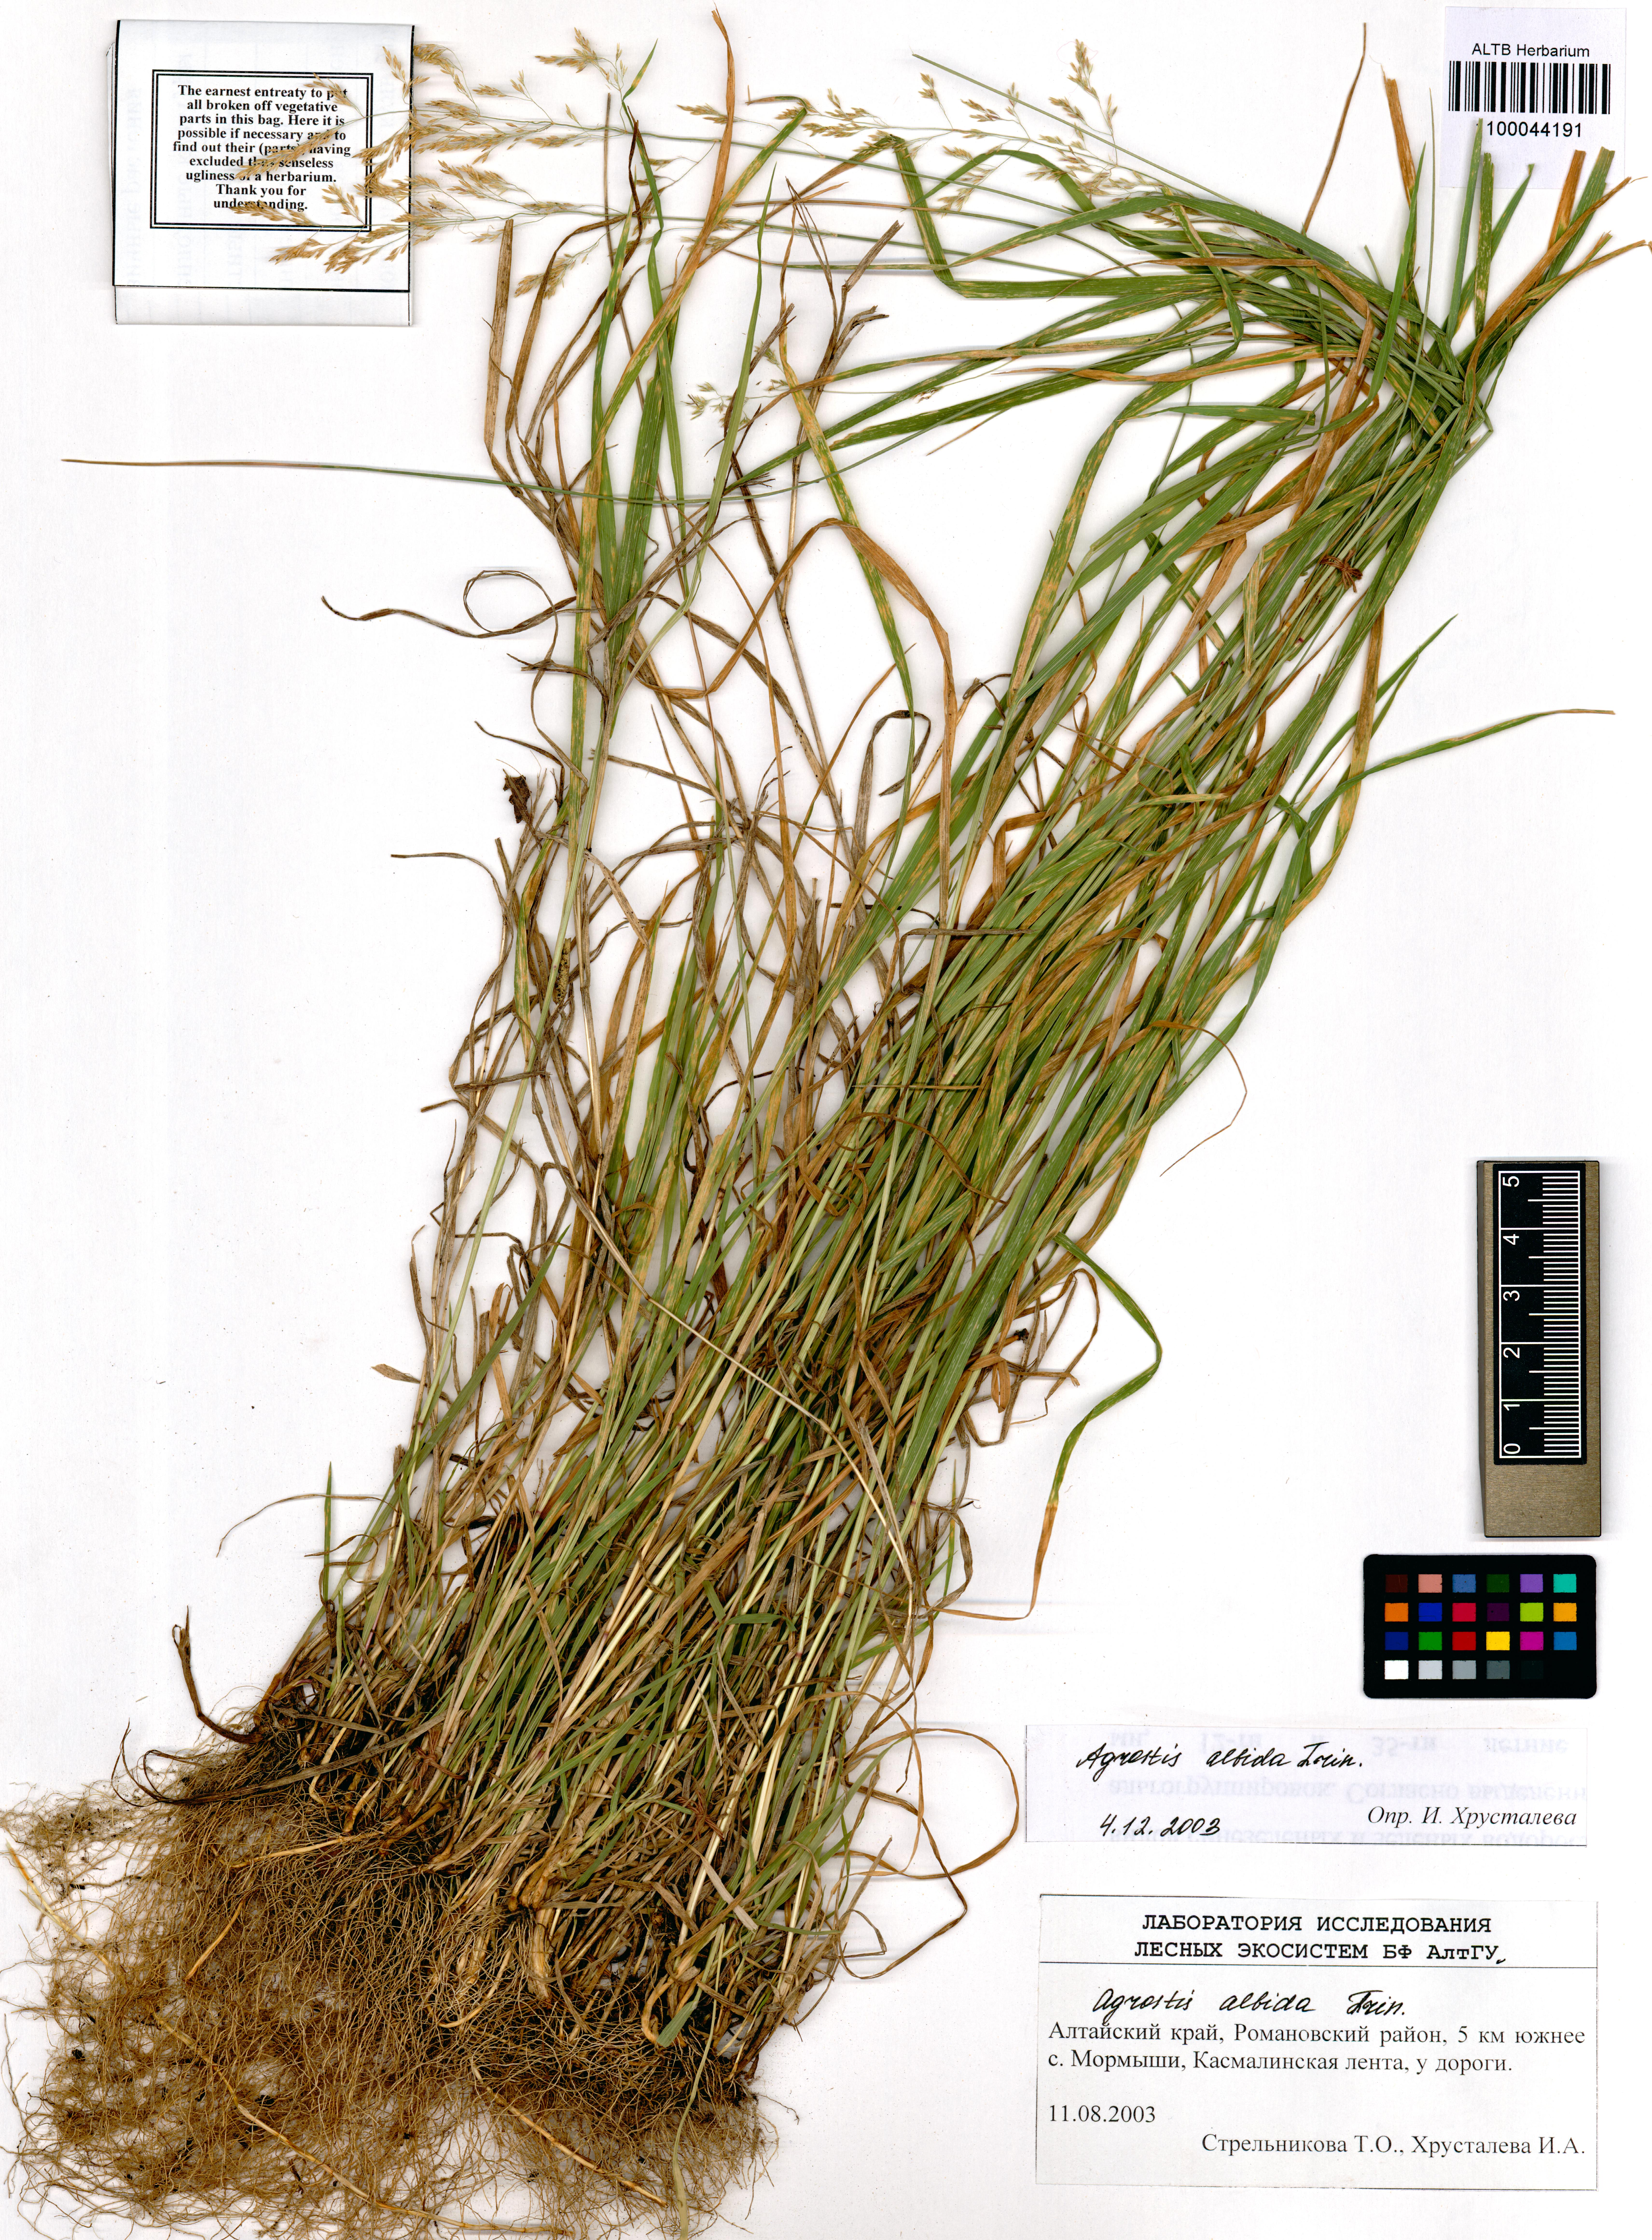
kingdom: Plantae
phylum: Tracheophyta
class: Liliopsida
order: Poales
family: Poaceae
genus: Agrostis
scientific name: Agrostis stolonifera
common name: Creeping bentgrass
